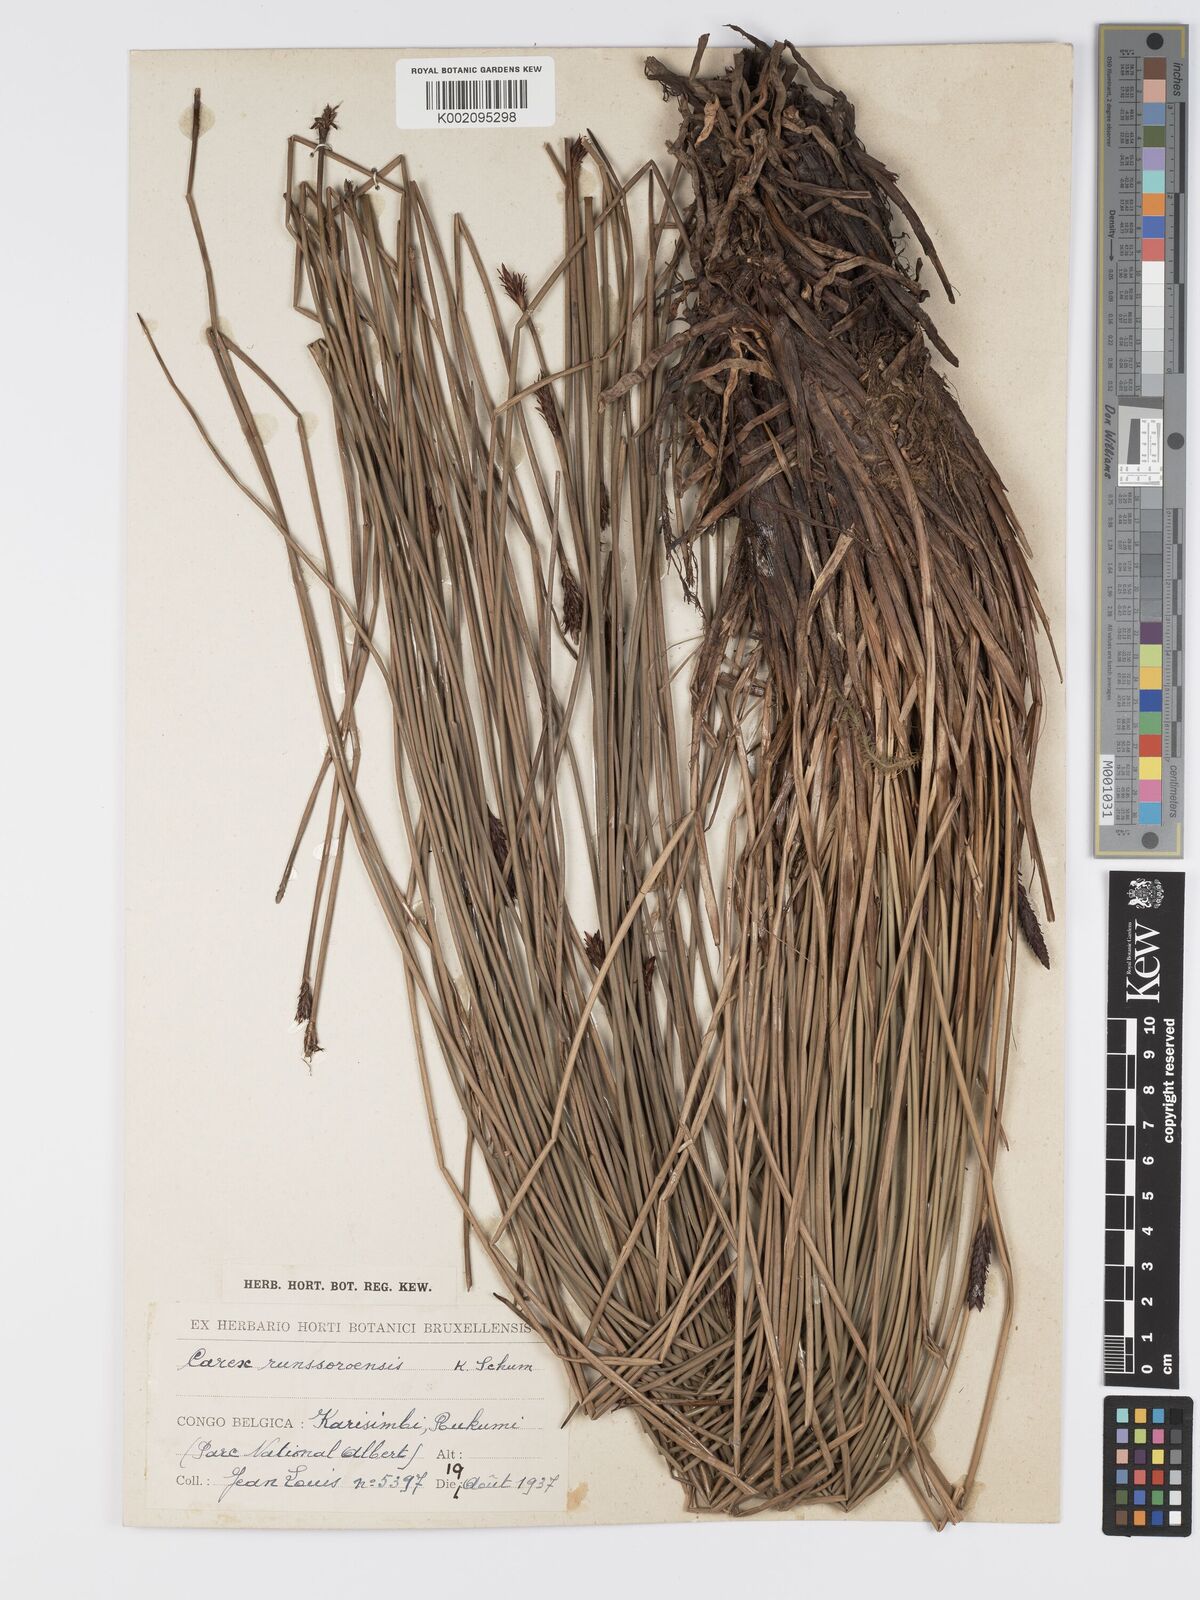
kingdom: Plantae
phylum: Tracheophyta
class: Liliopsida
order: Poales
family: Cyperaceae
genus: Carex
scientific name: Carex runssoroensis
